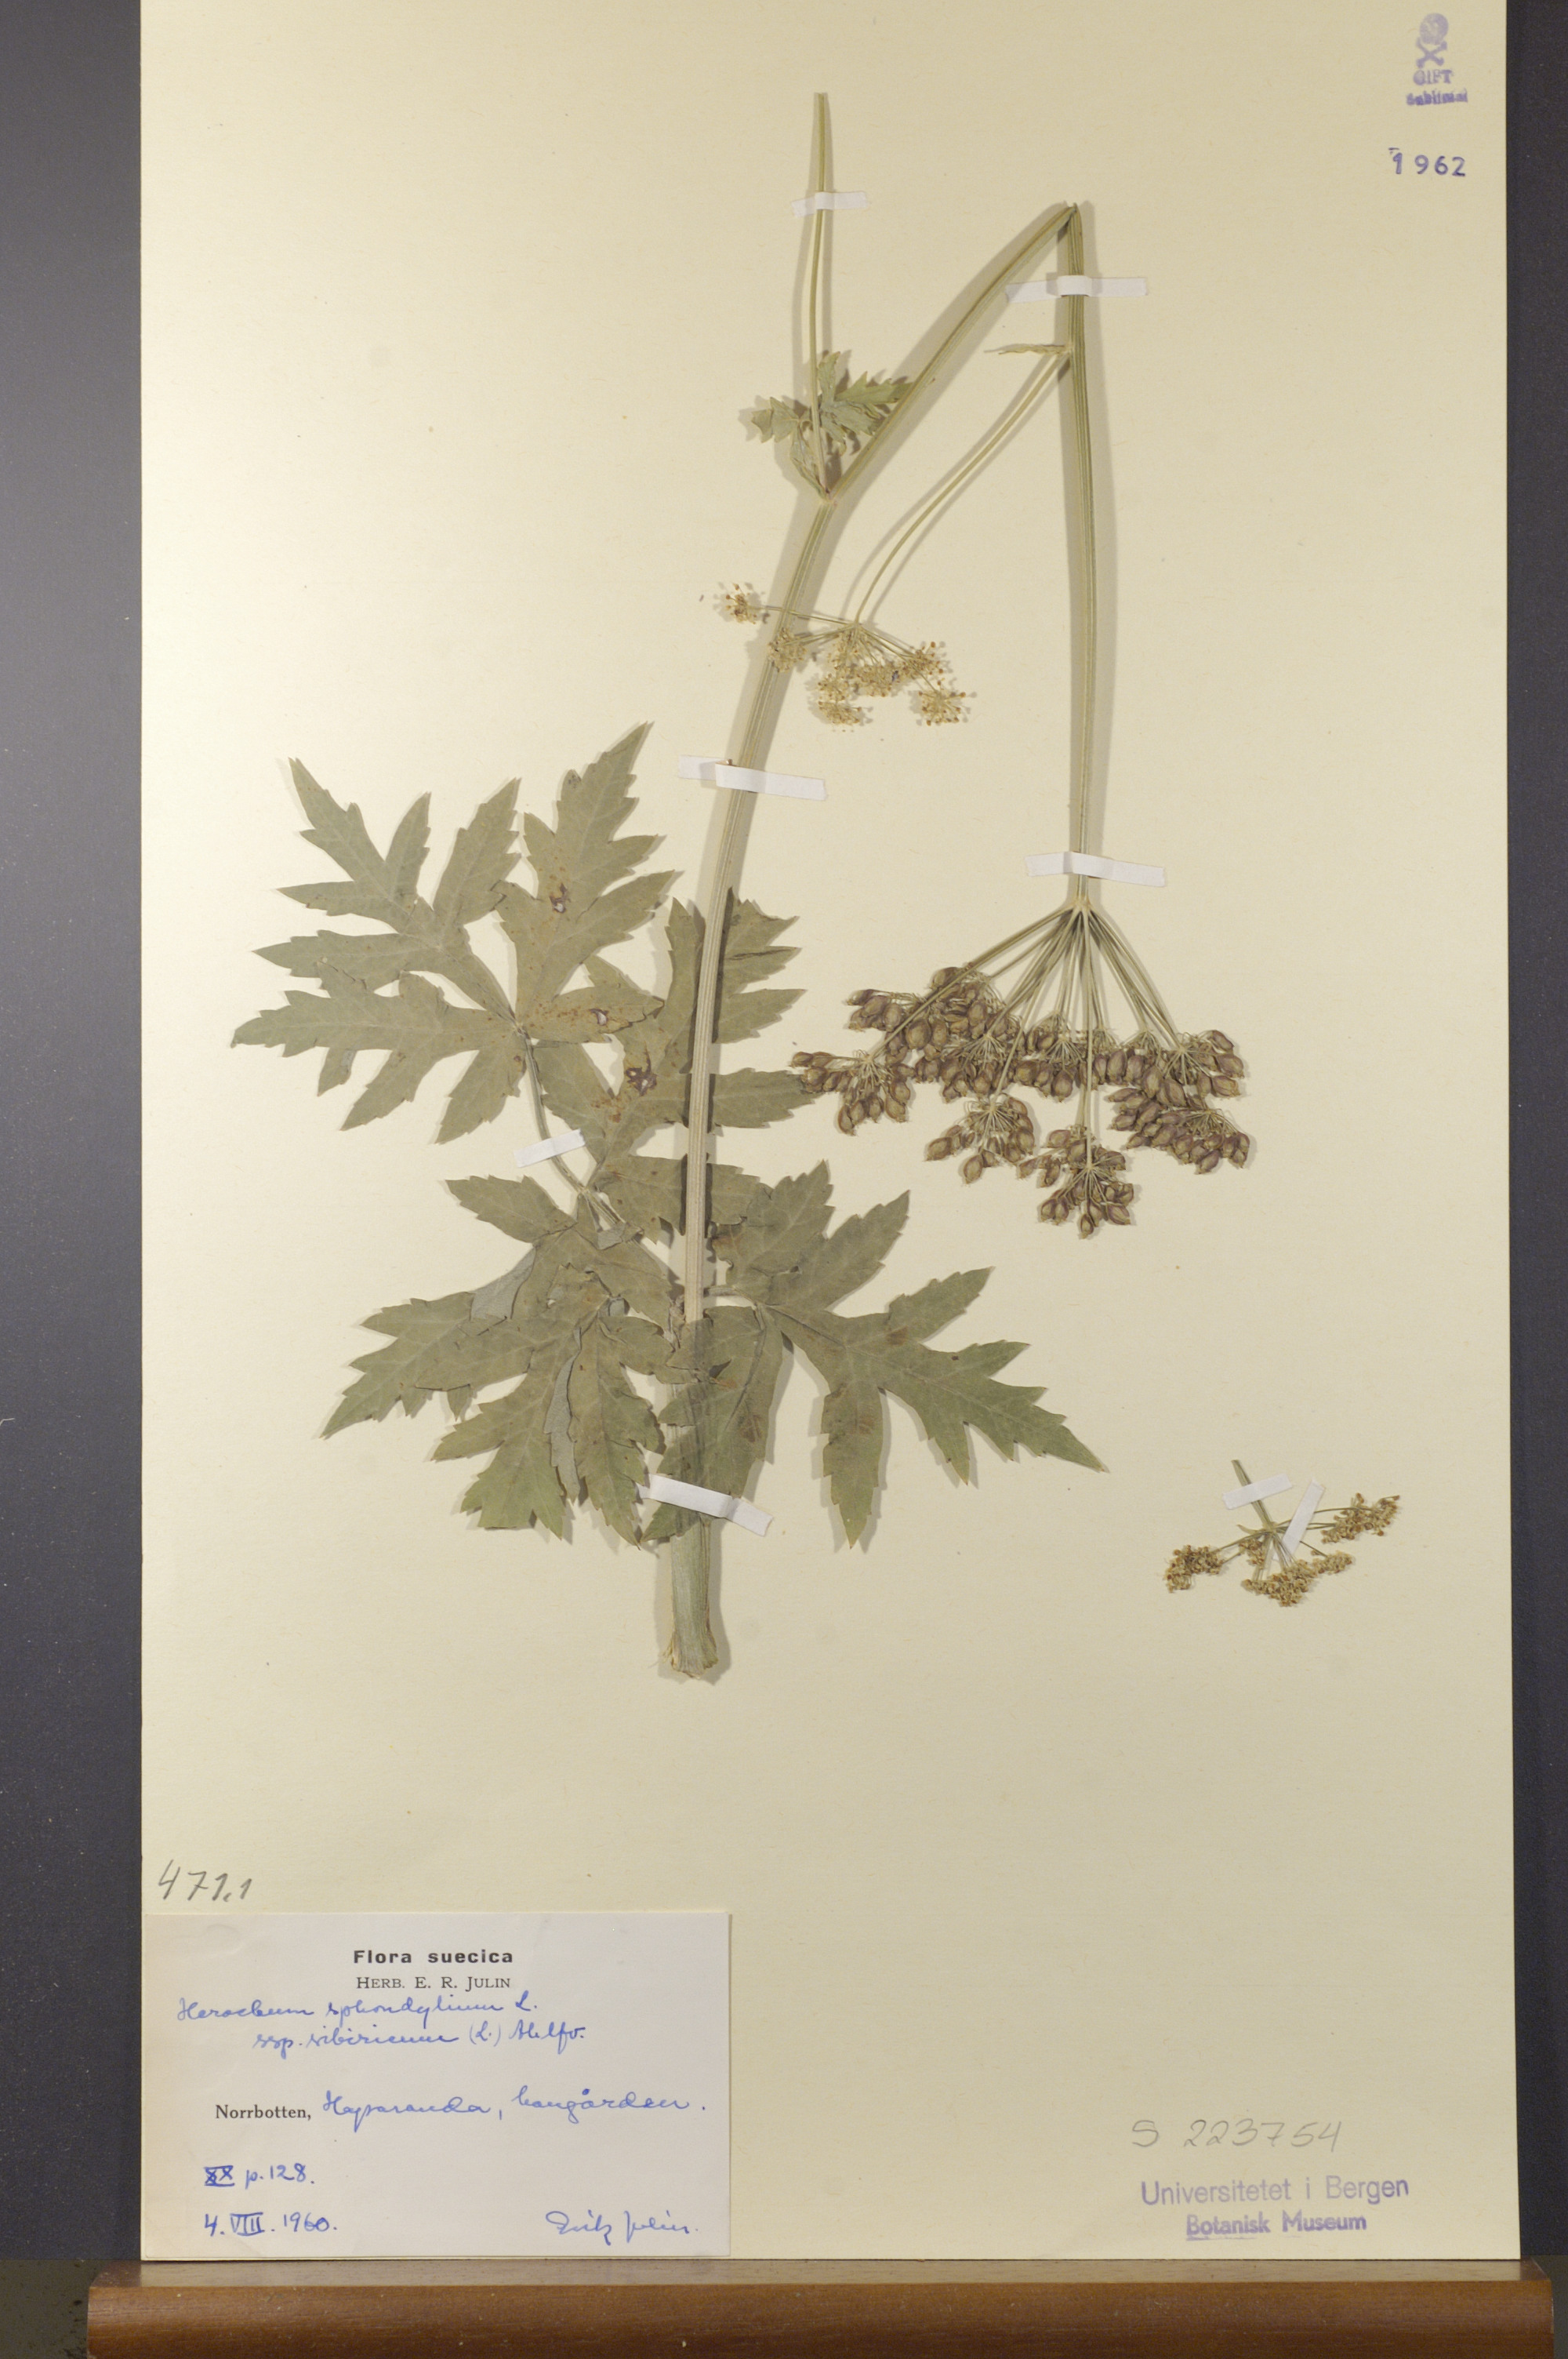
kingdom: Plantae
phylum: Tracheophyta
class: Magnoliopsida
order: Apiales
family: Apiaceae
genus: Heracleum
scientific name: Heracleum sphondylium
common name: Hogweed
